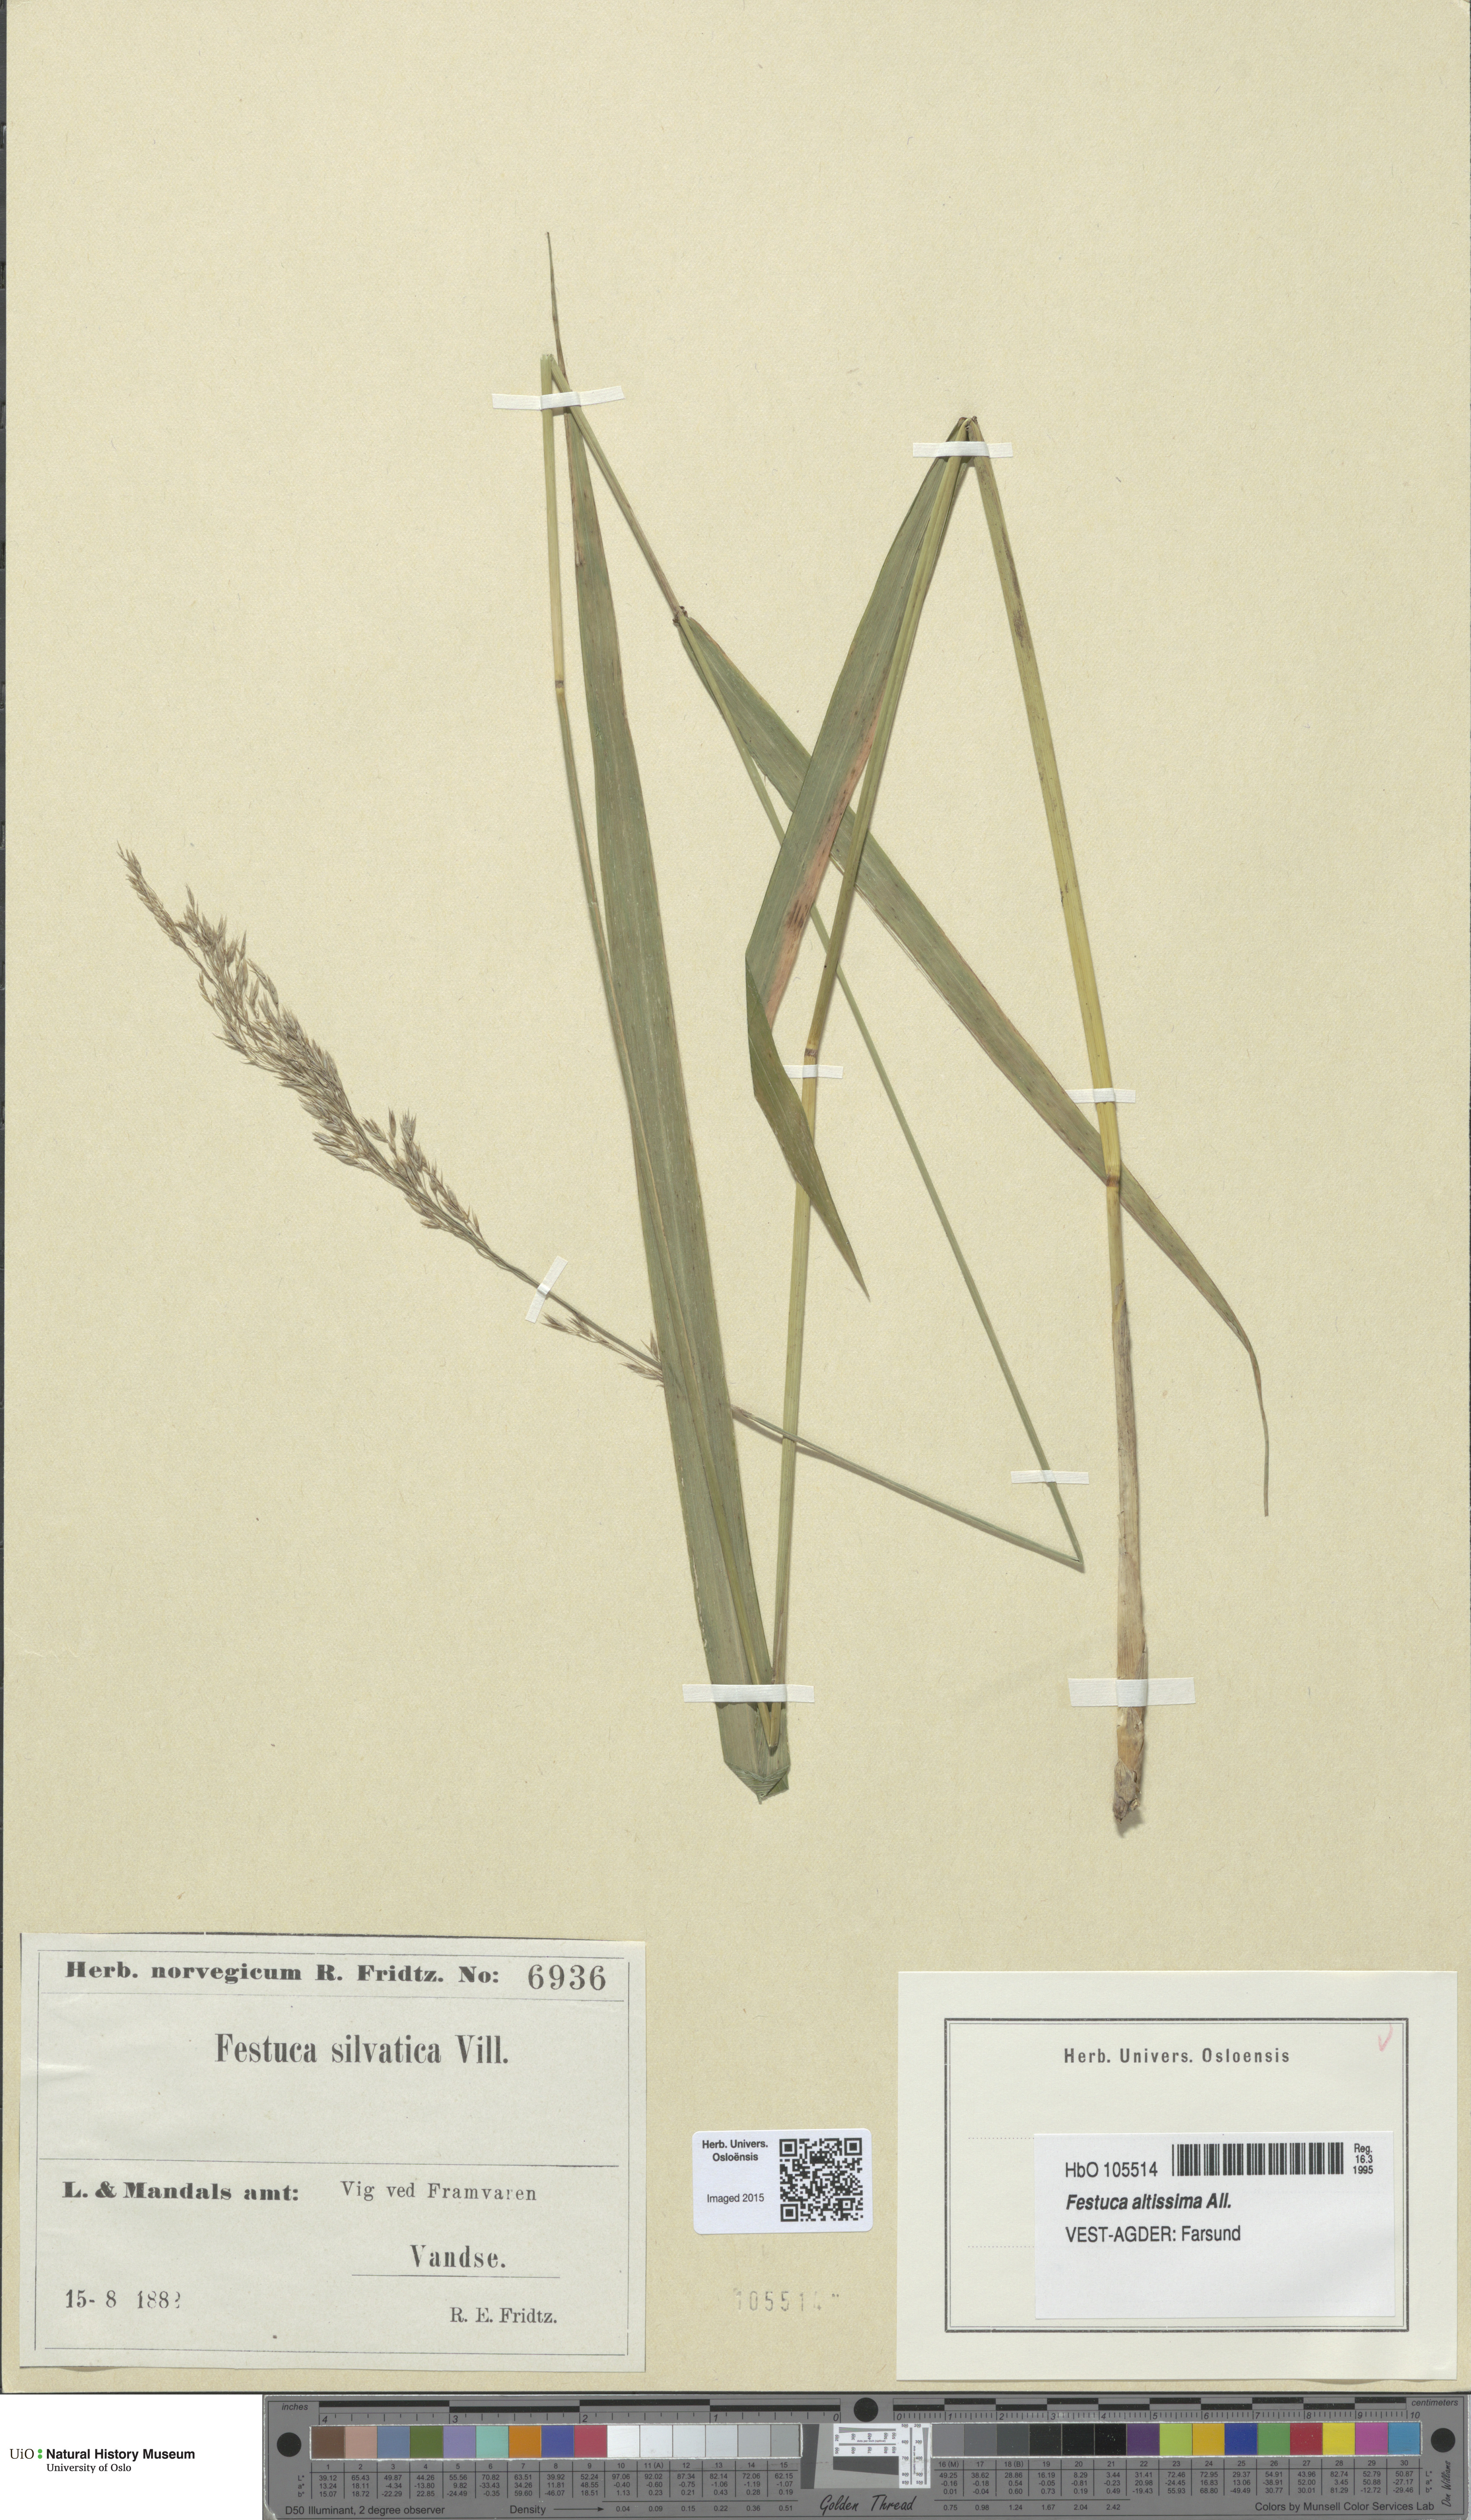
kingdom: Plantae
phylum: Tracheophyta
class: Liliopsida
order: Poales
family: Poaceae
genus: Festuca
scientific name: Festuca altissima
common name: Wood fescue
